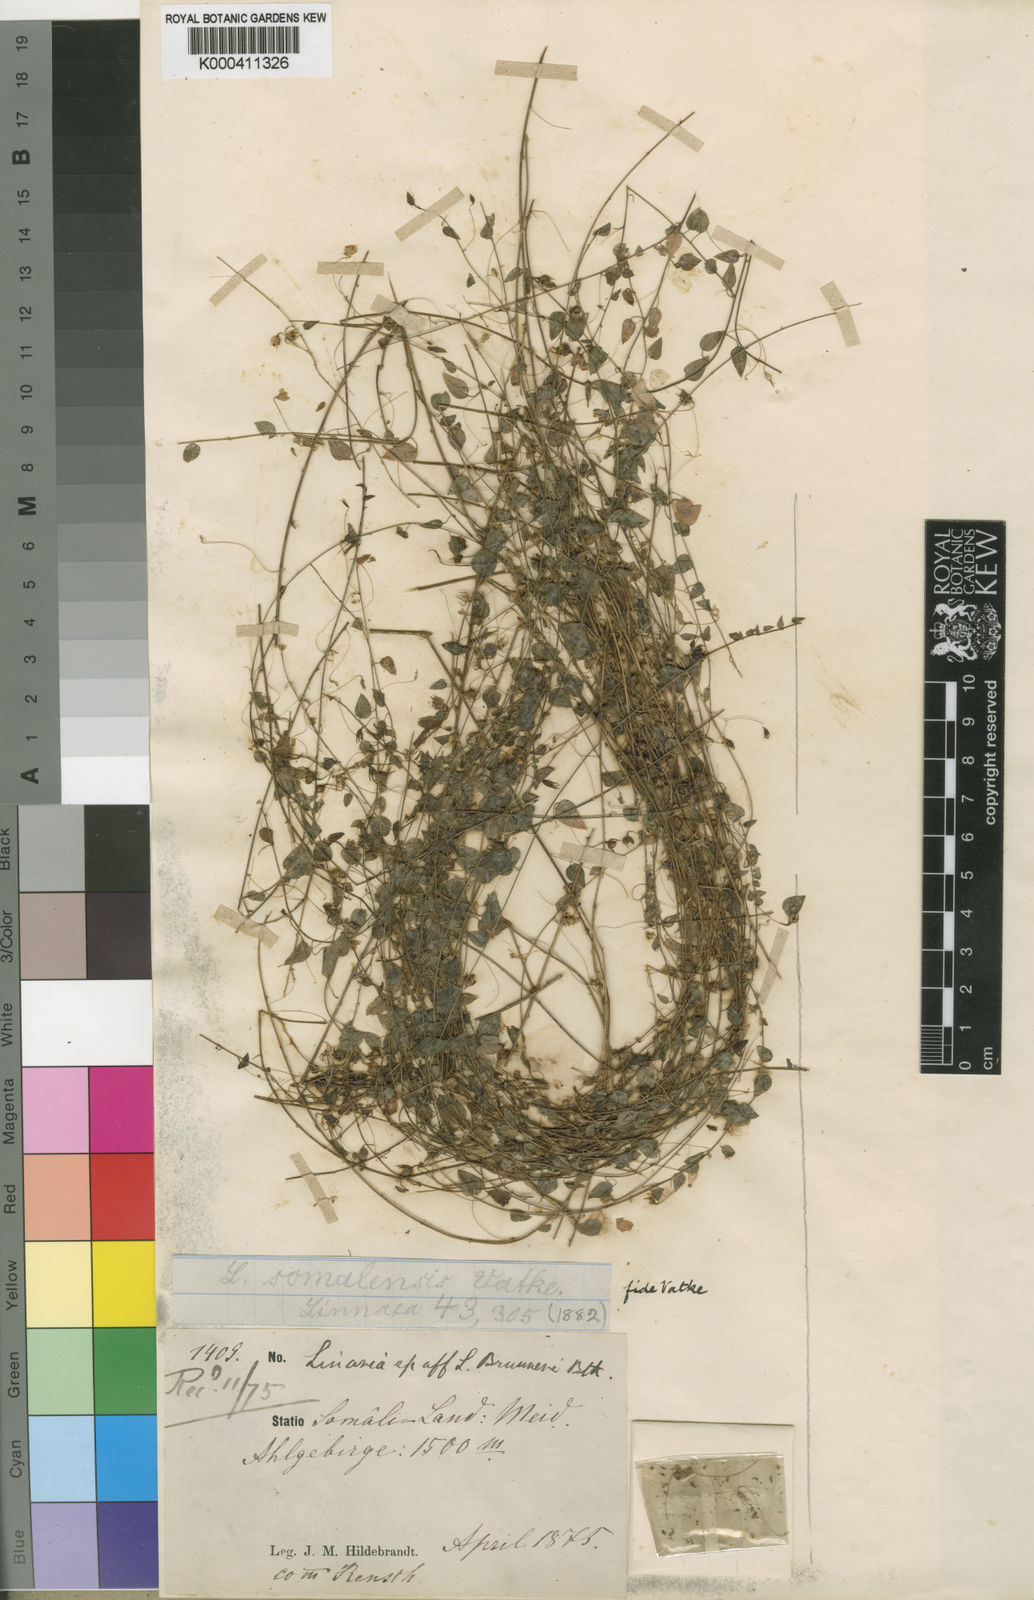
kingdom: Plantae
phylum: Tracheophyta
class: Magnoliopsida
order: Lamiales
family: Plantaginaceae
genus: Nanorrhinum
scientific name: Nanorrhinum ramosissimum
